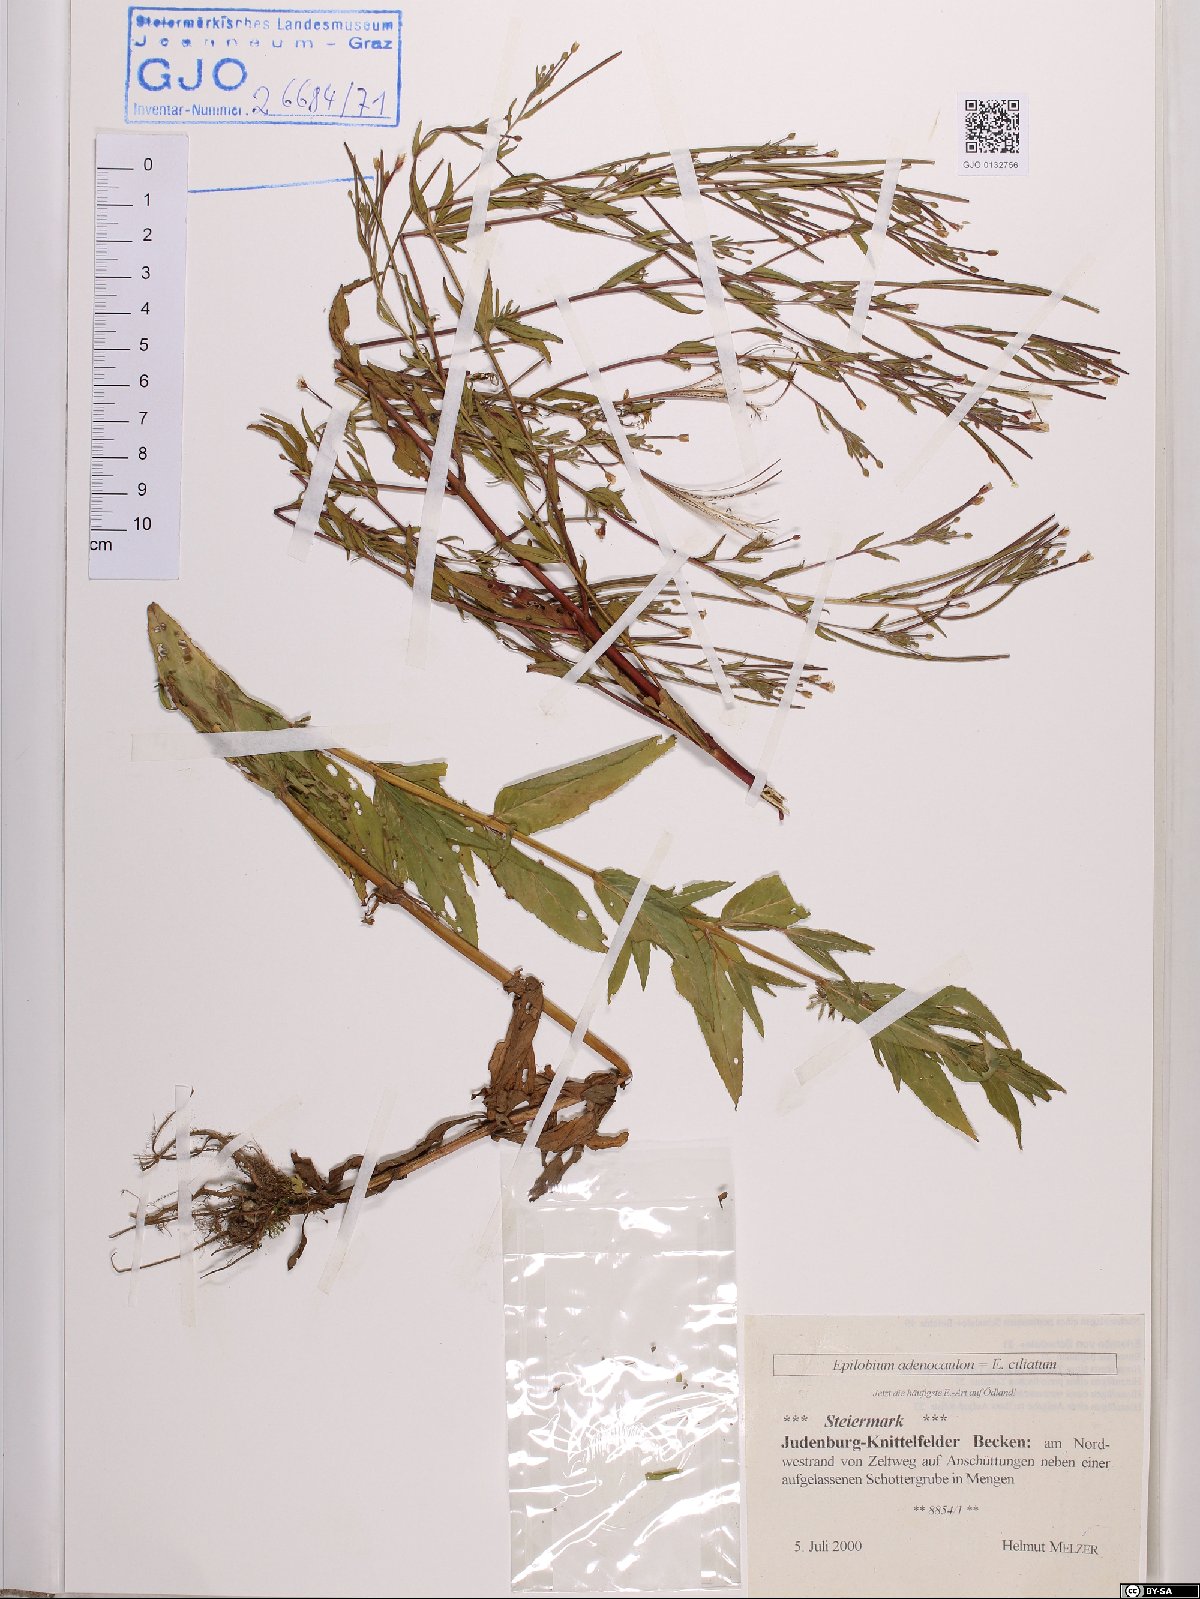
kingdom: Plantae
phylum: Tracheophyta
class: Magnoliopsida
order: Myrtales
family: Onagraceae
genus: Epilobium
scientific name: Epilobium ciliatum
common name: American willowherb
